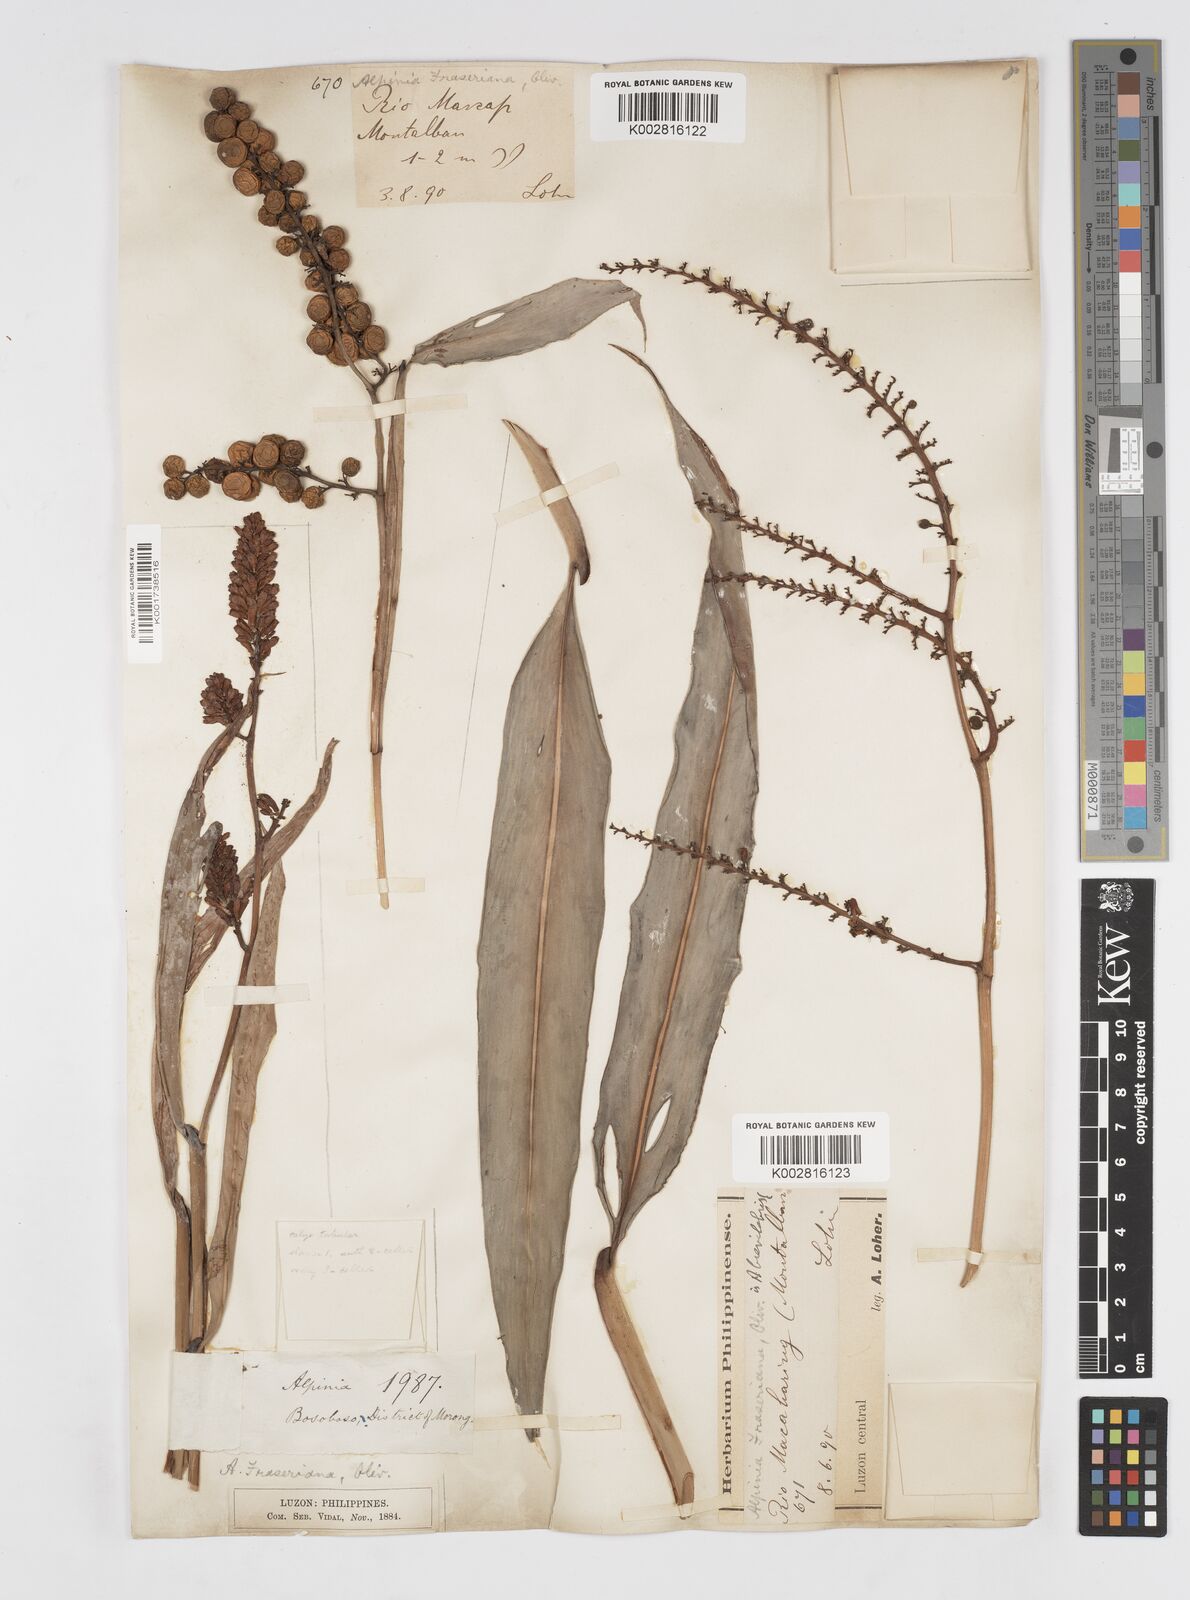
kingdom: Plantae
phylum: Tracheophyta
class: Liliopsida
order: Zingiberales
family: Zingiberaceae
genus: Alpinia
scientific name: Alpinia brevilabris
